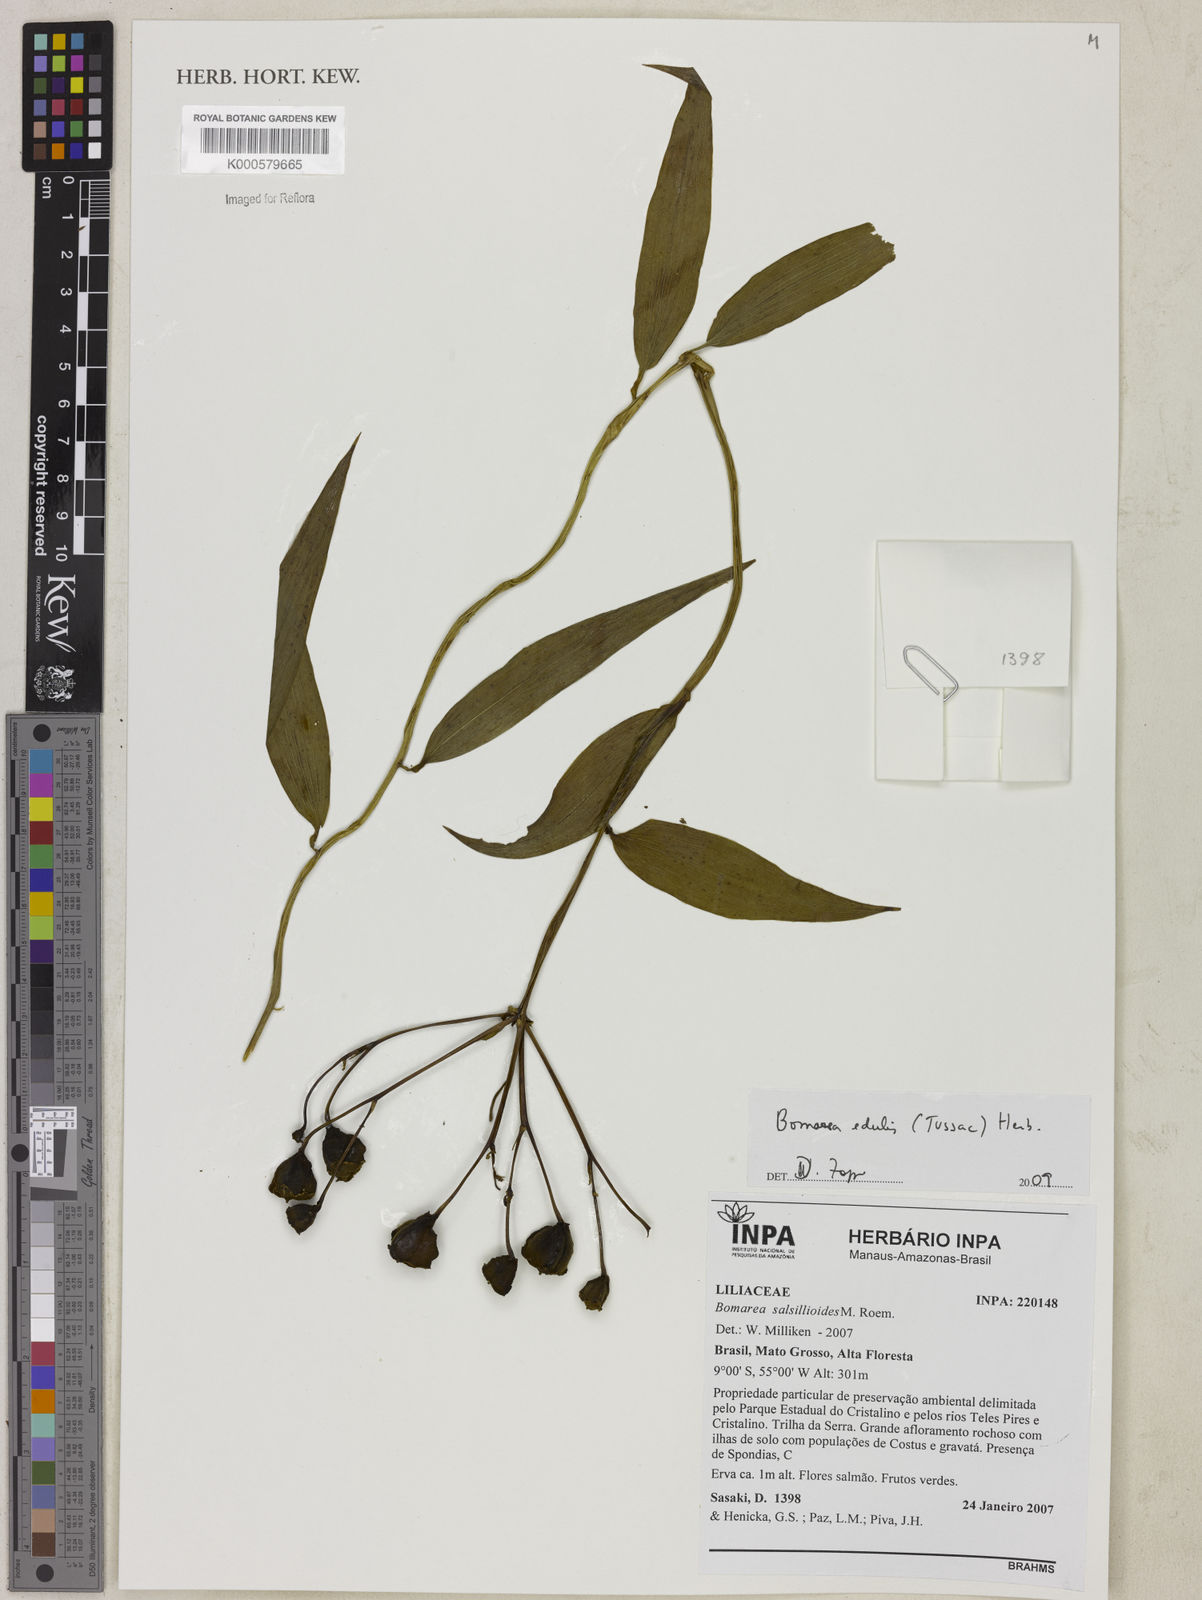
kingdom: Plantae
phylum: Tracheophyta
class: Liliopsida
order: Liliales
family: Alstroemeriaceae
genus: Bomarea
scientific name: Bomarea edulis
